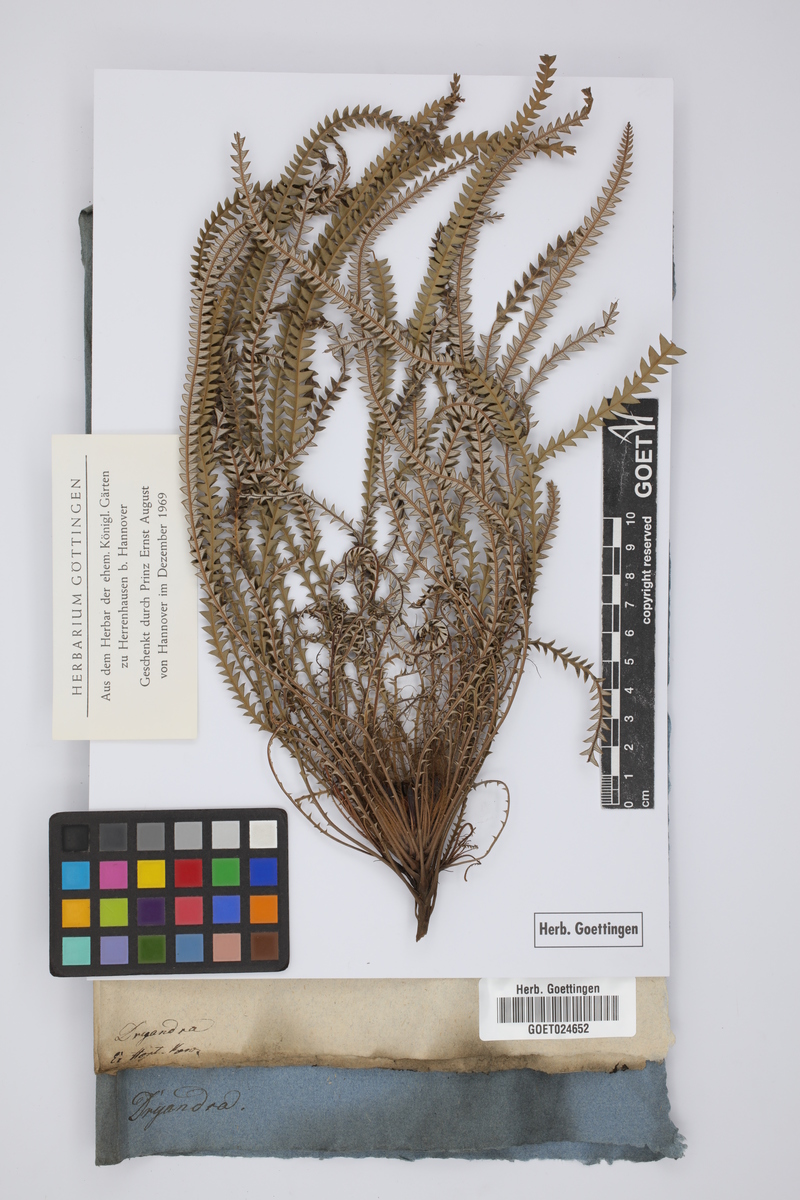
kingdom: Plantae
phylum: Tracheophyta
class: Magnoliopsida
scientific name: Magnoliopsida
